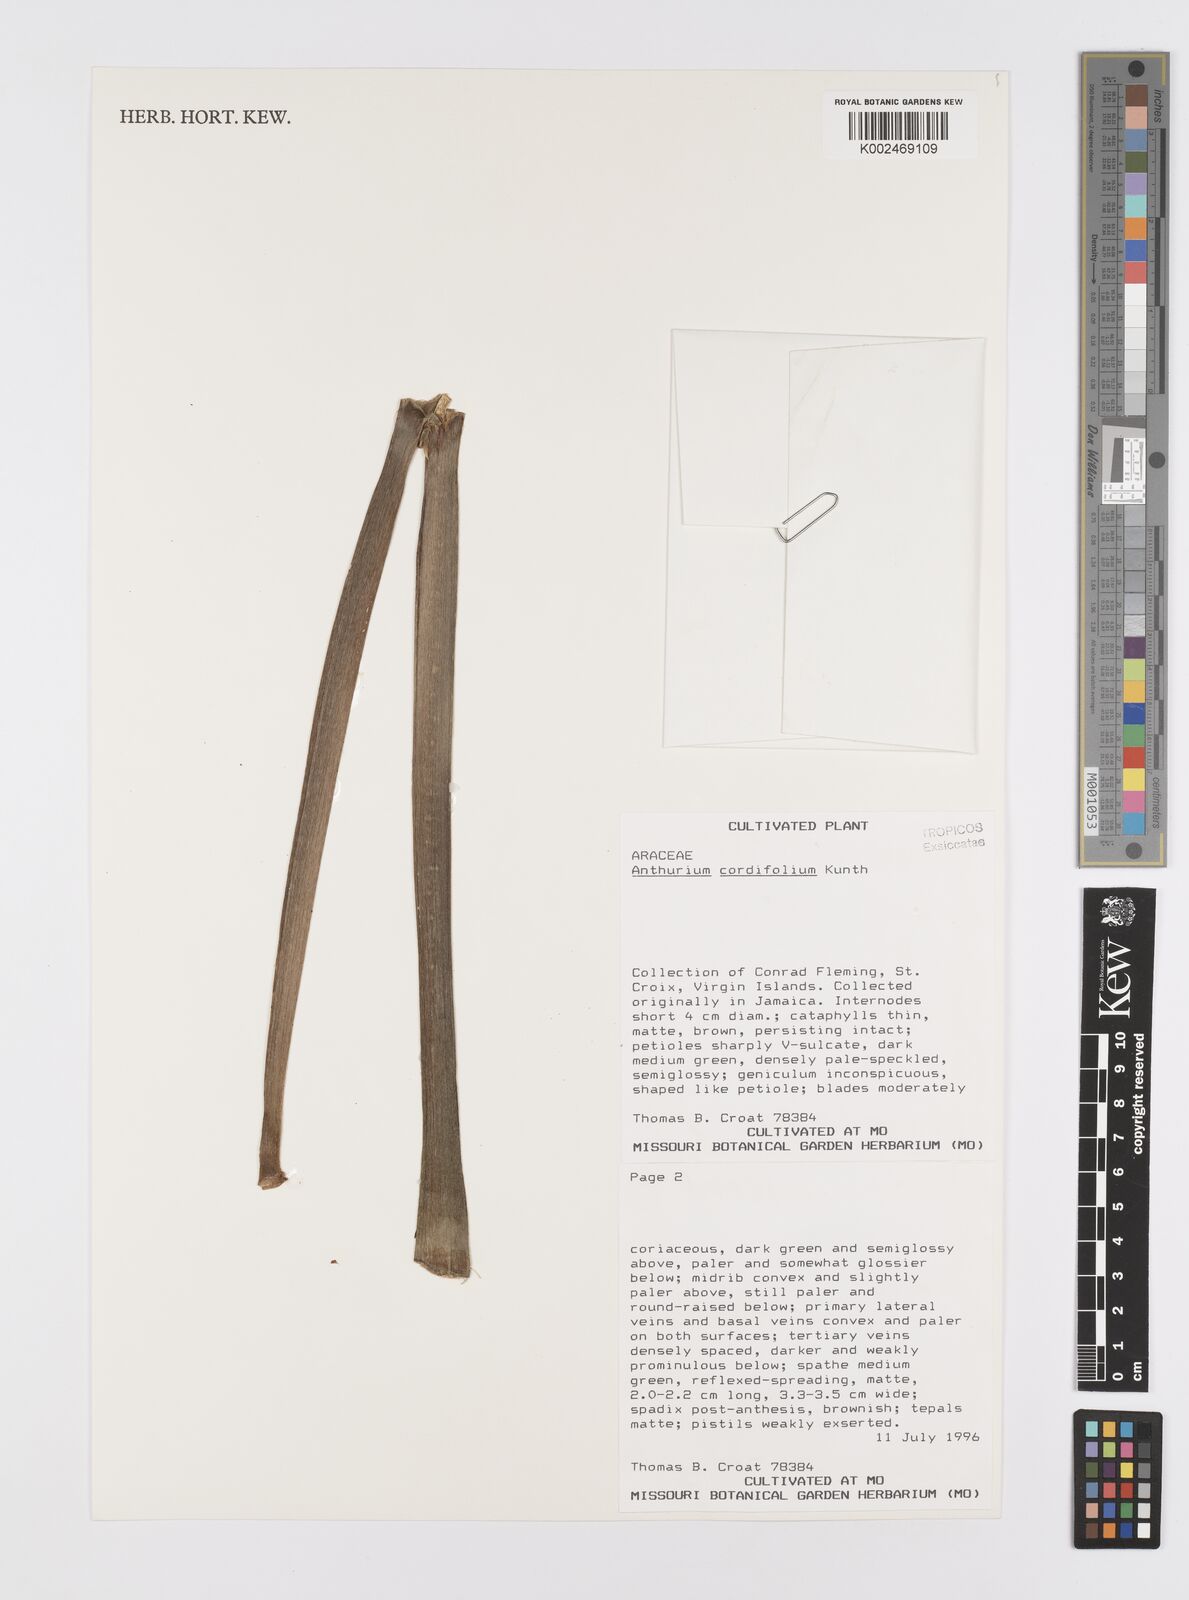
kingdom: Plantae
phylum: Tracheophyta
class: Liliopsida
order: Alismatales
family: Araceae
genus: Anthurium
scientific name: Anthurium grandifolium
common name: Monkey tail
